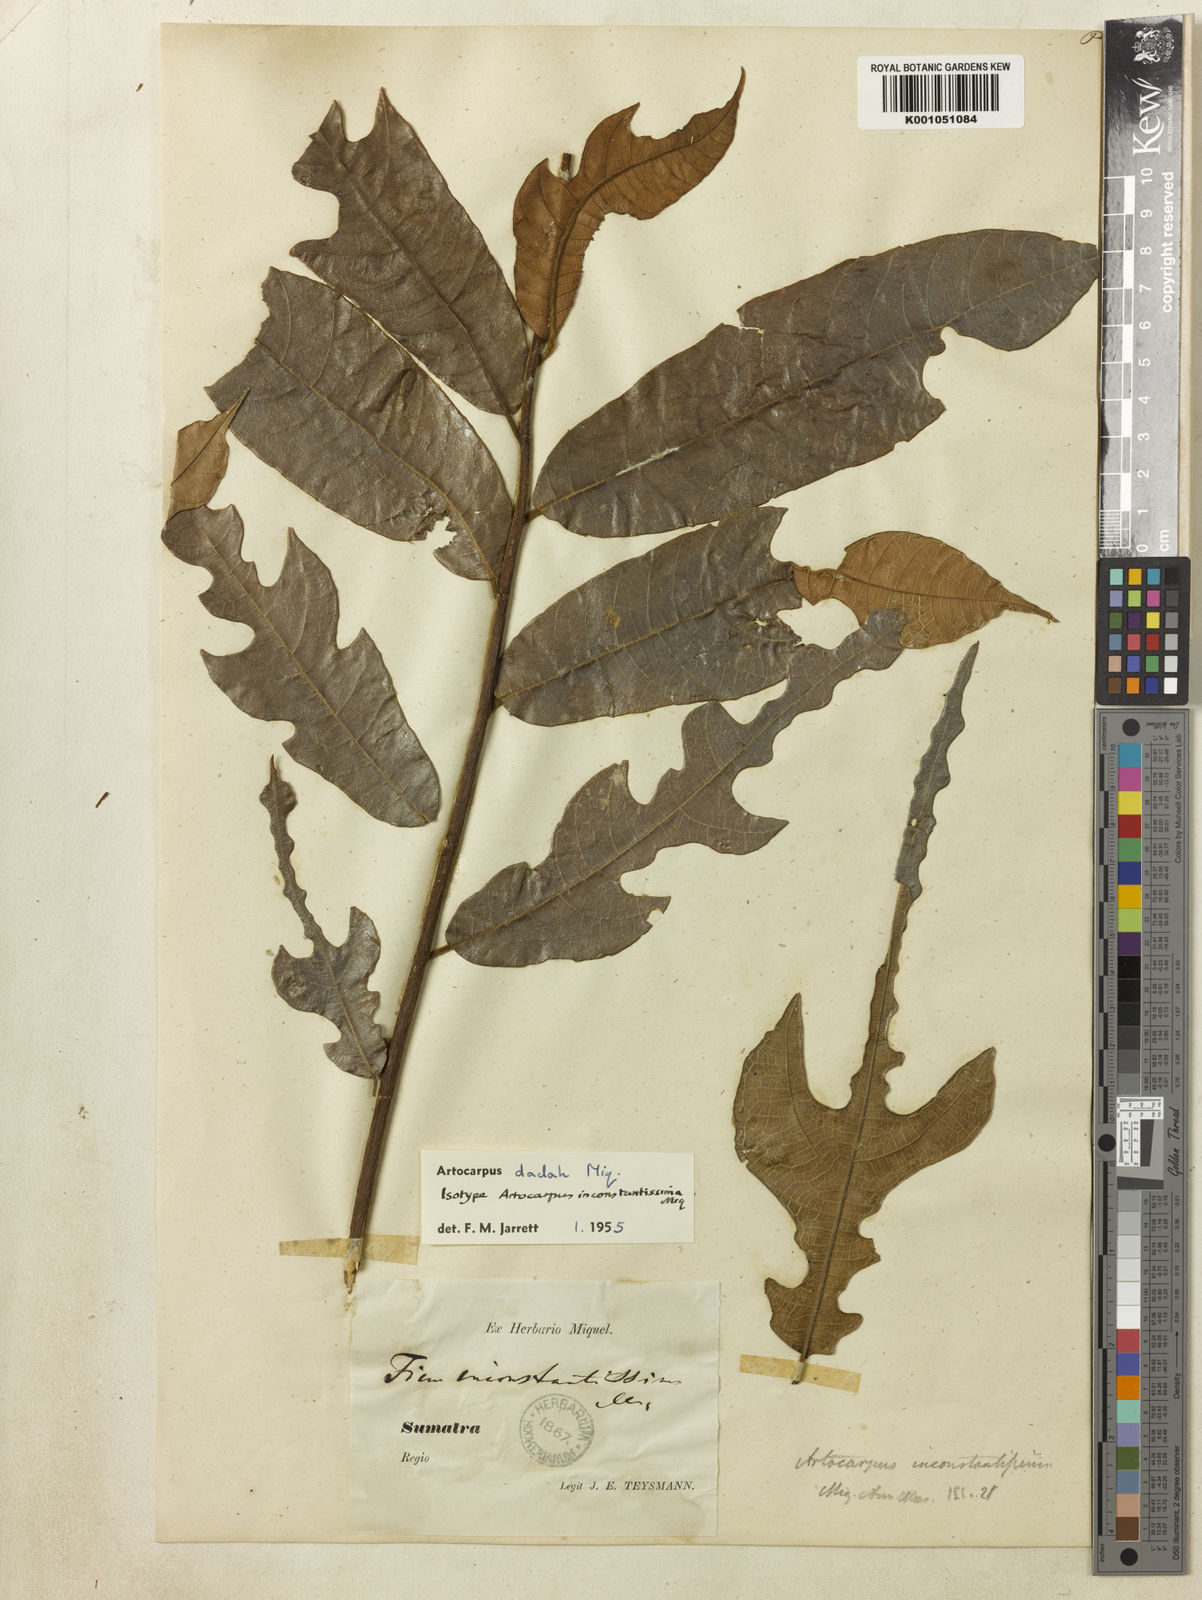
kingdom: Plantae
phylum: Tracheophyta
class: Magnoliopsida
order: Rosales
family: Moraceae
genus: Artocarpus
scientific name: Artocarpus lacucha
